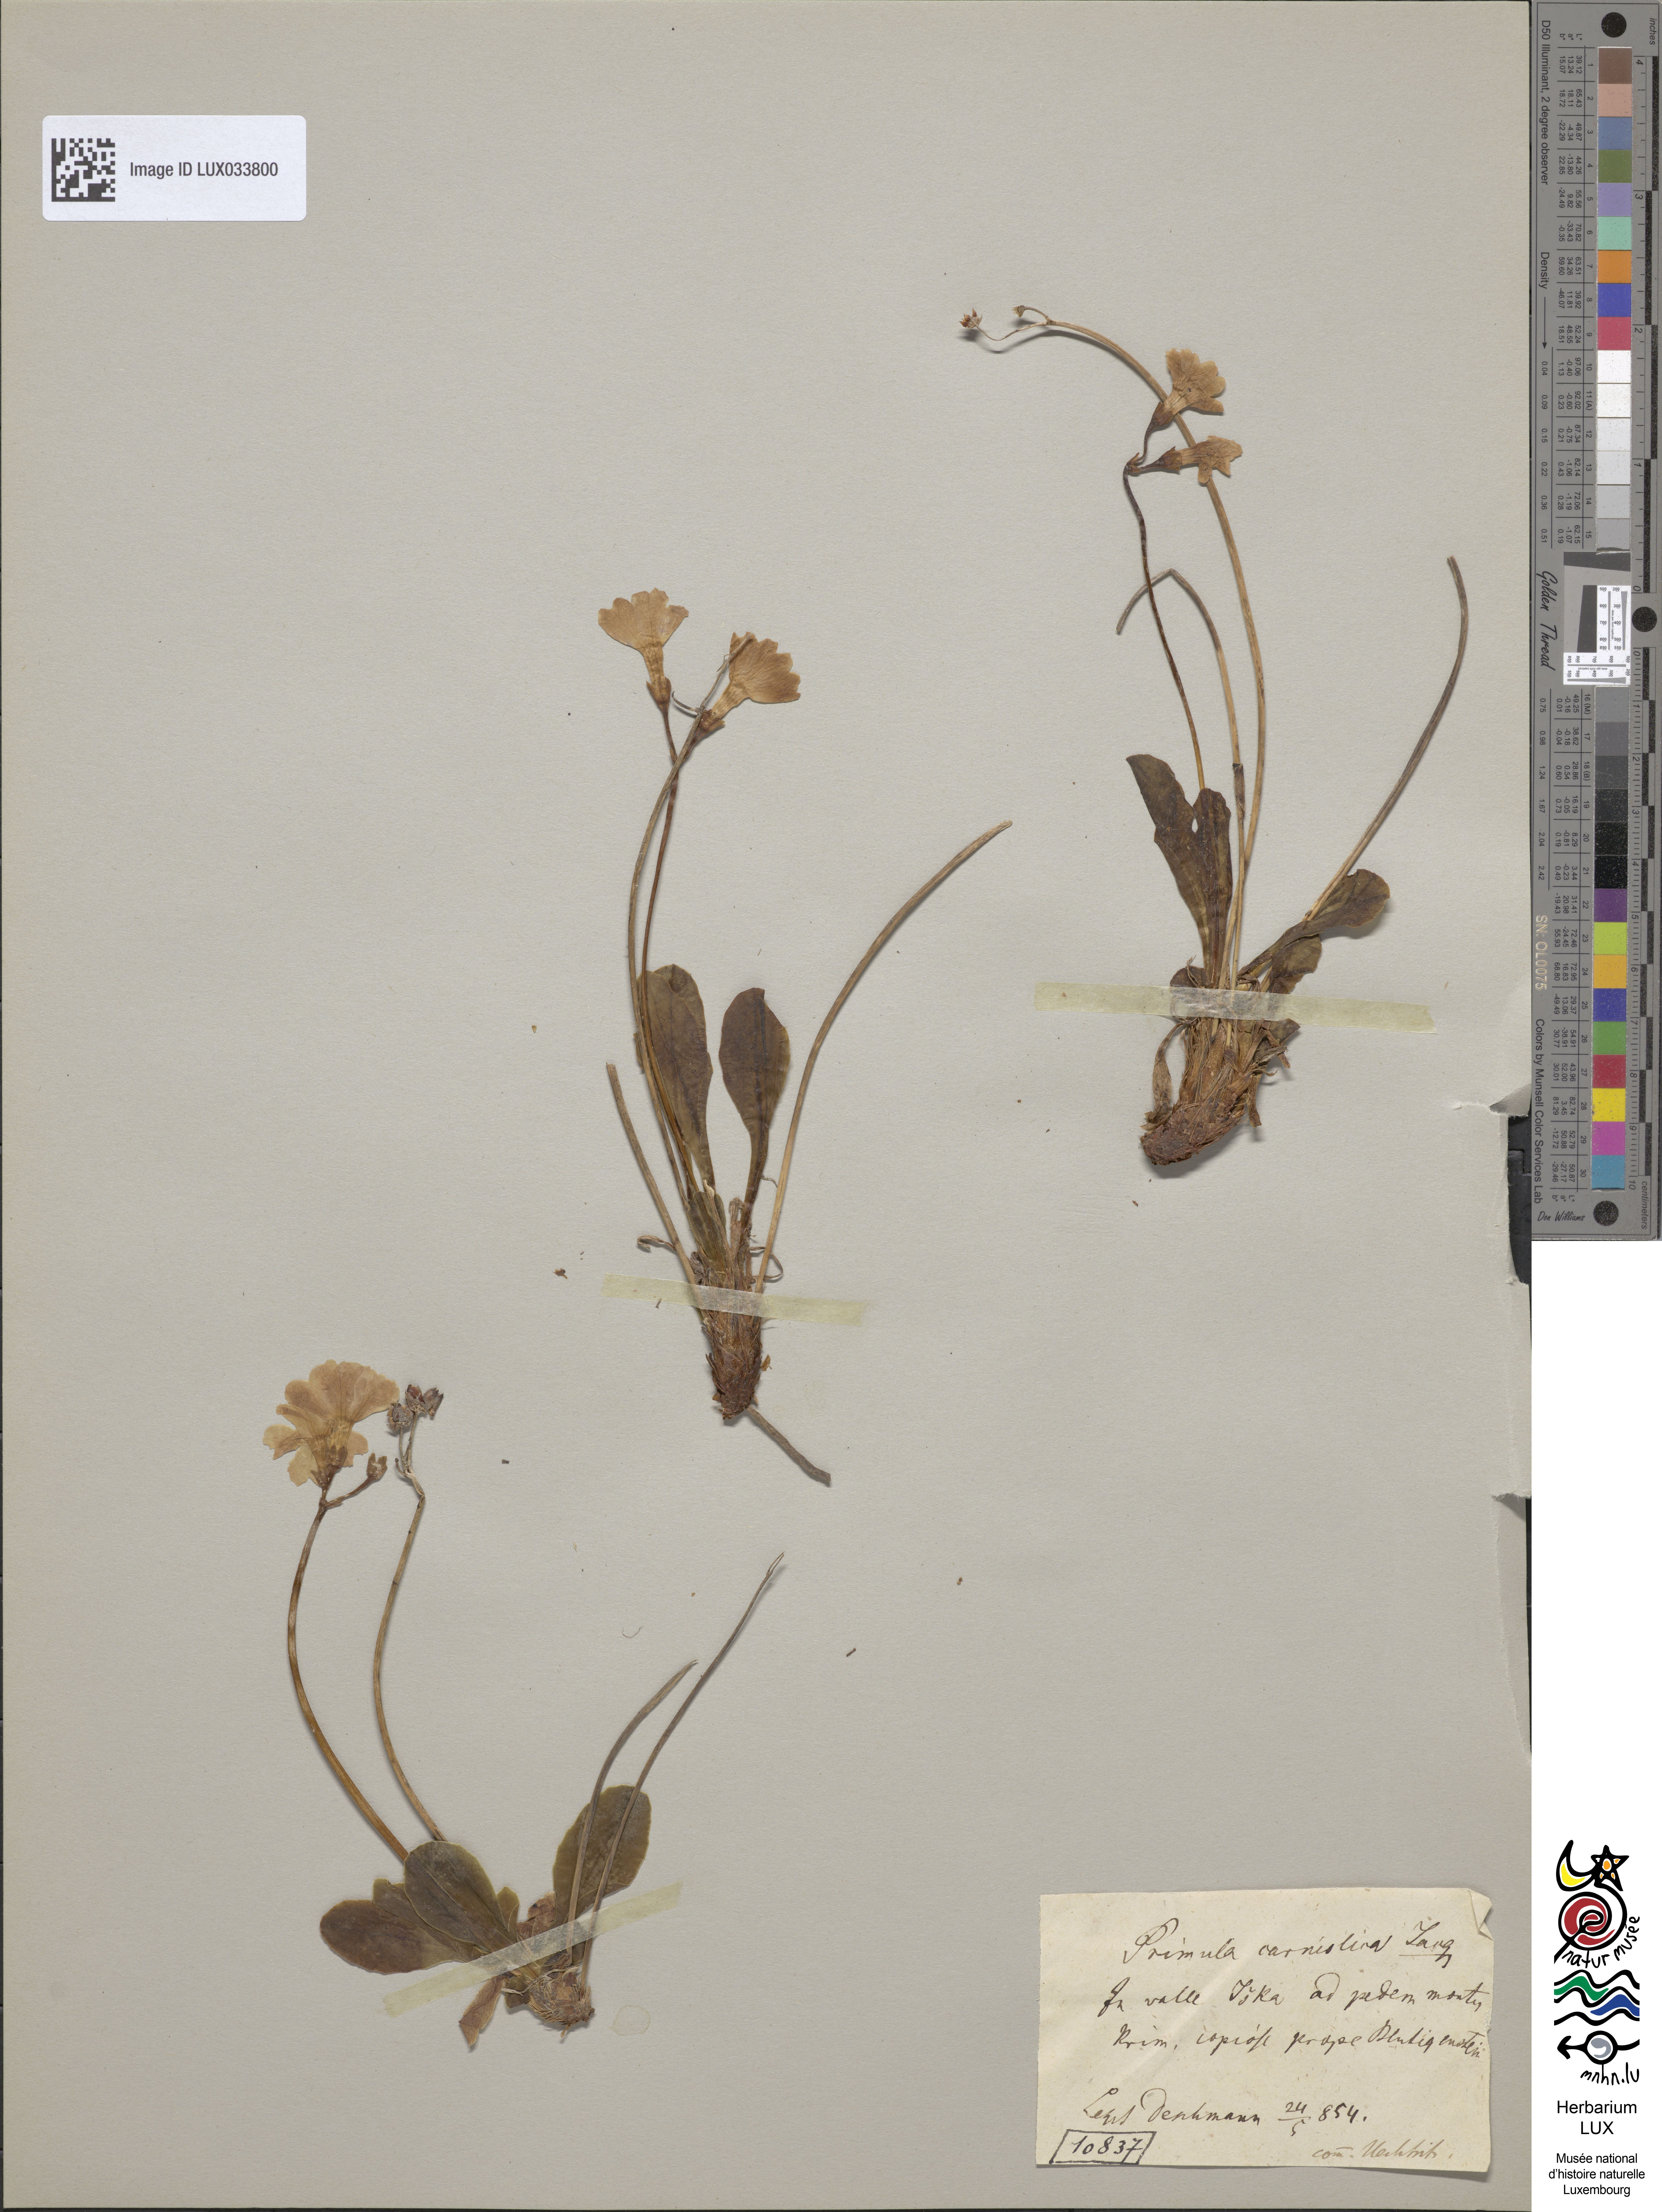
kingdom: Plantae
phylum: Tracheophyta
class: Magnoliopsida
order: Ericales
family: Primulaceae
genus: Primula
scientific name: Primula carniolica
